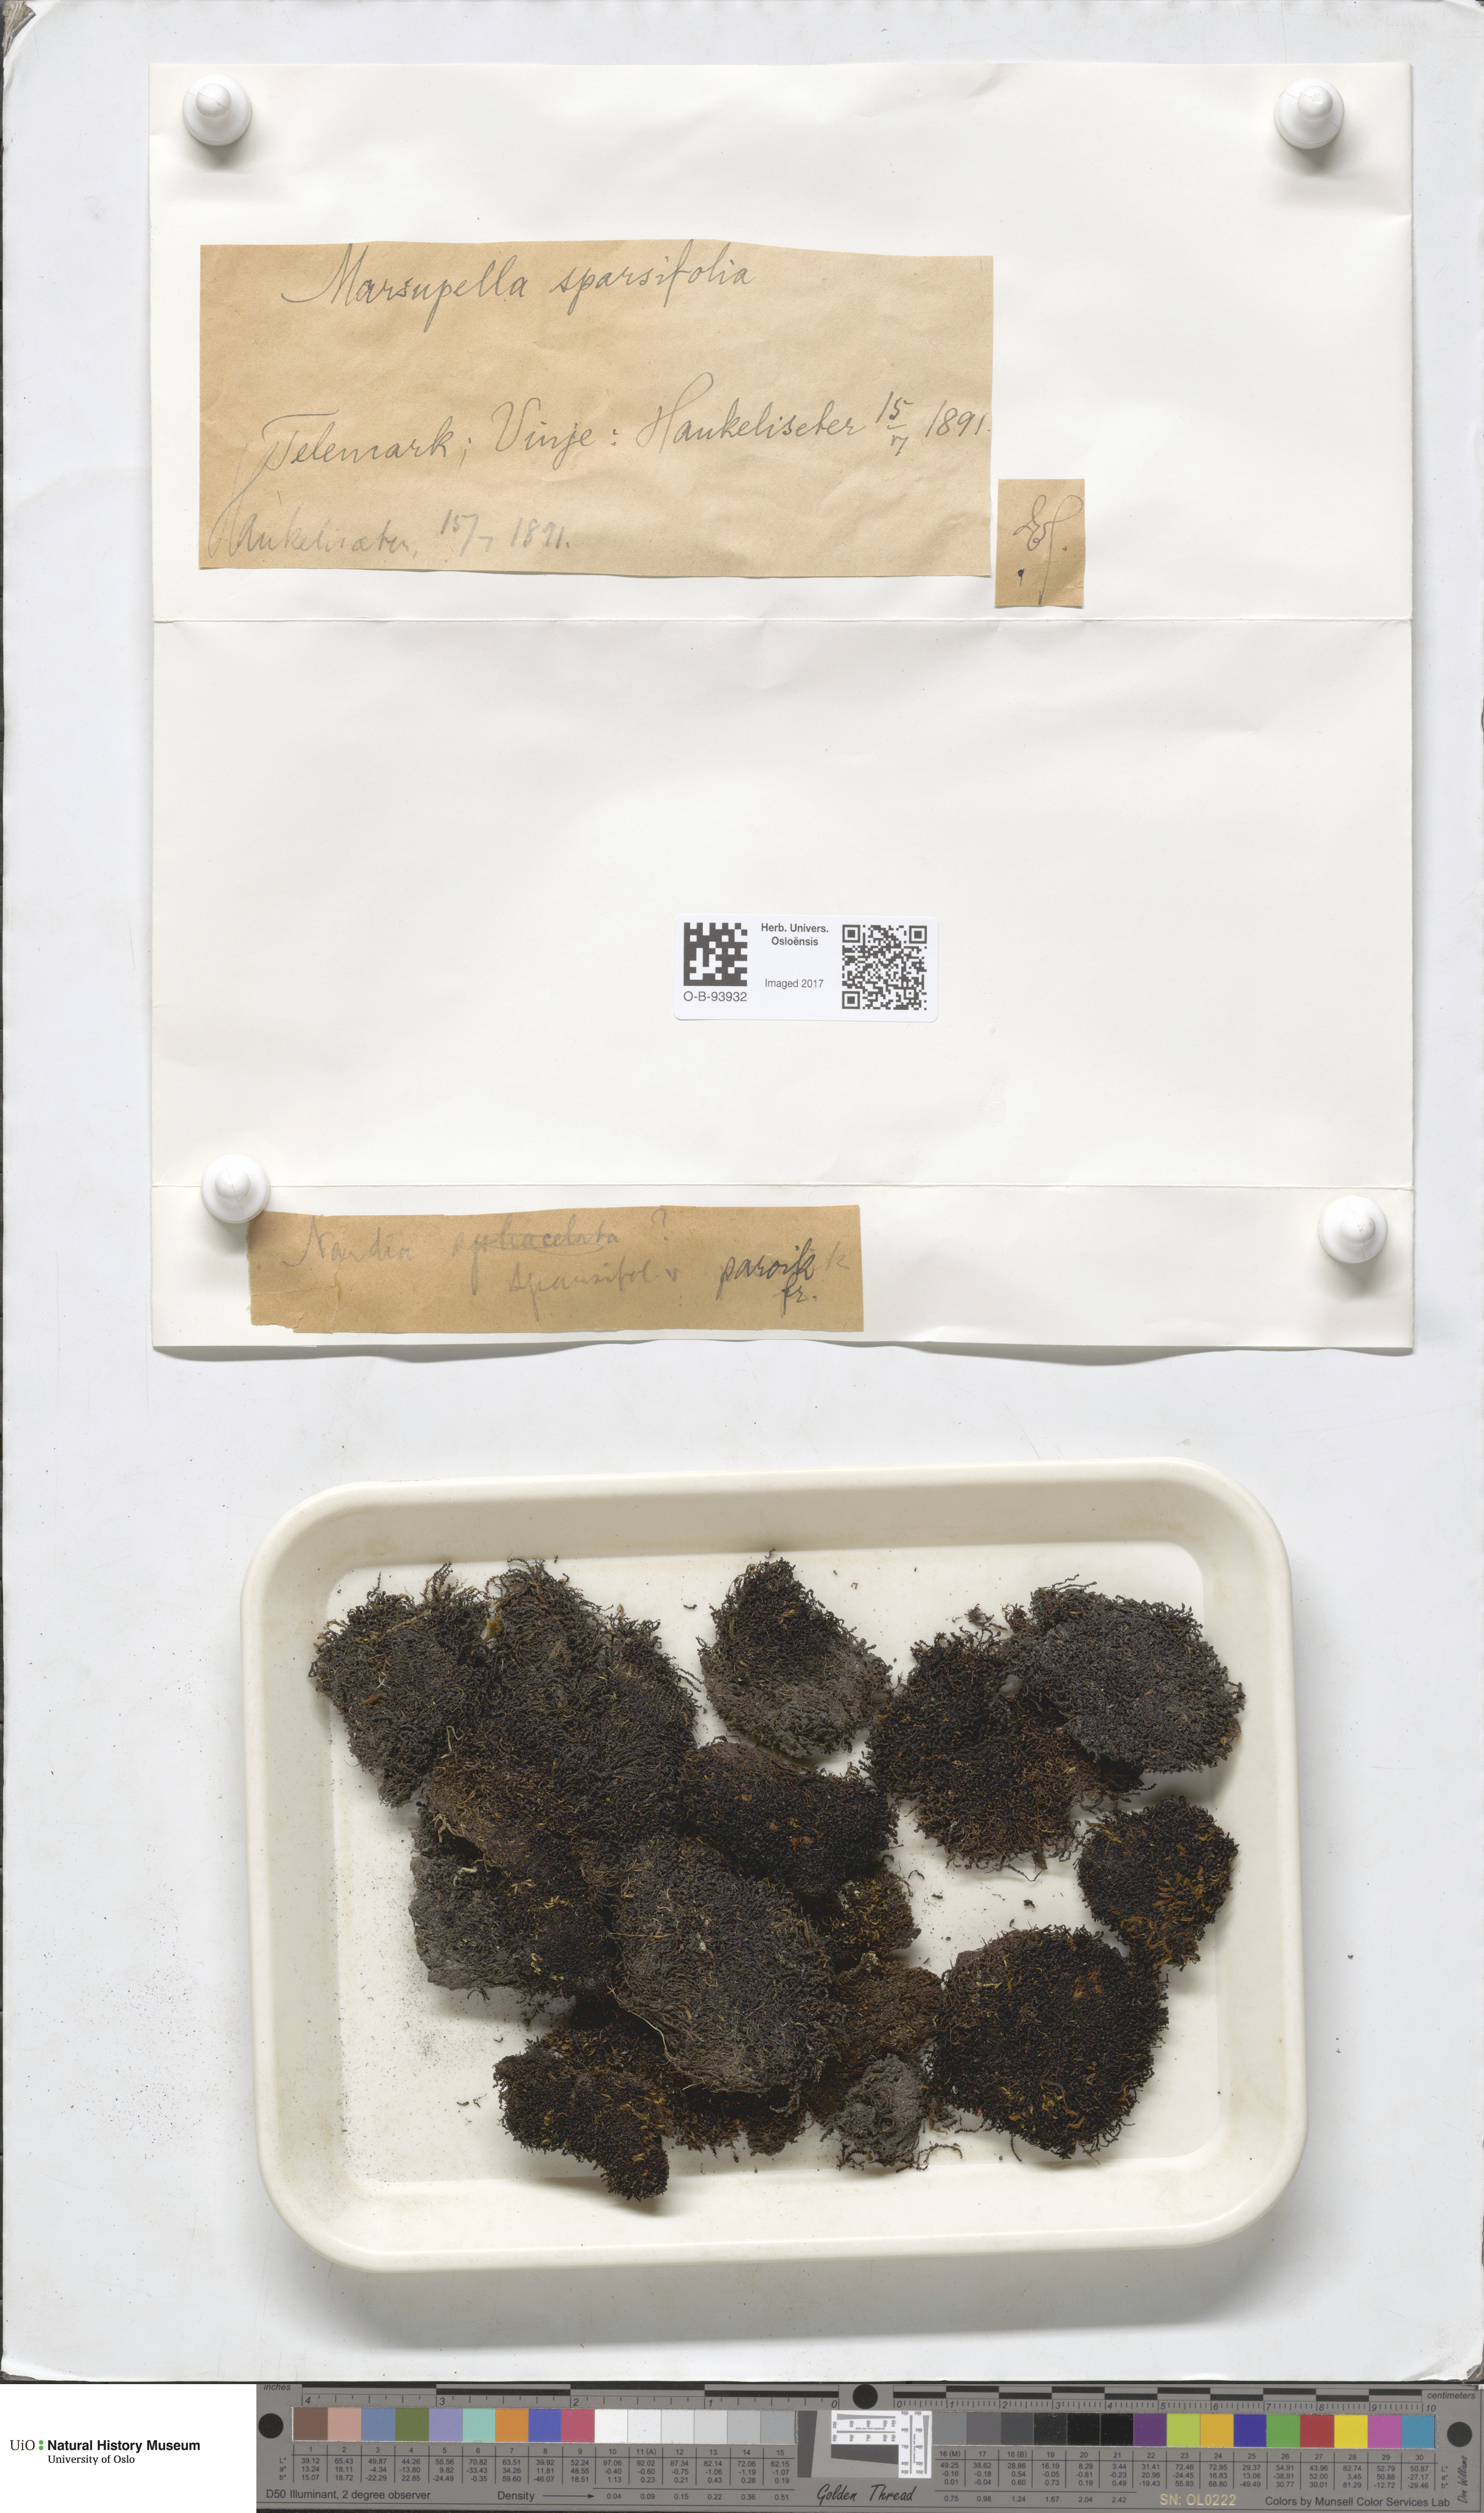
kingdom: Plantae
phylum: Marchantiophyta
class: Jungermanniopsida
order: Jungermanniales
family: Gymnomitriaceae
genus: Marsupella
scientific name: Marsupella sparsifolia
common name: Rounded rustwort
